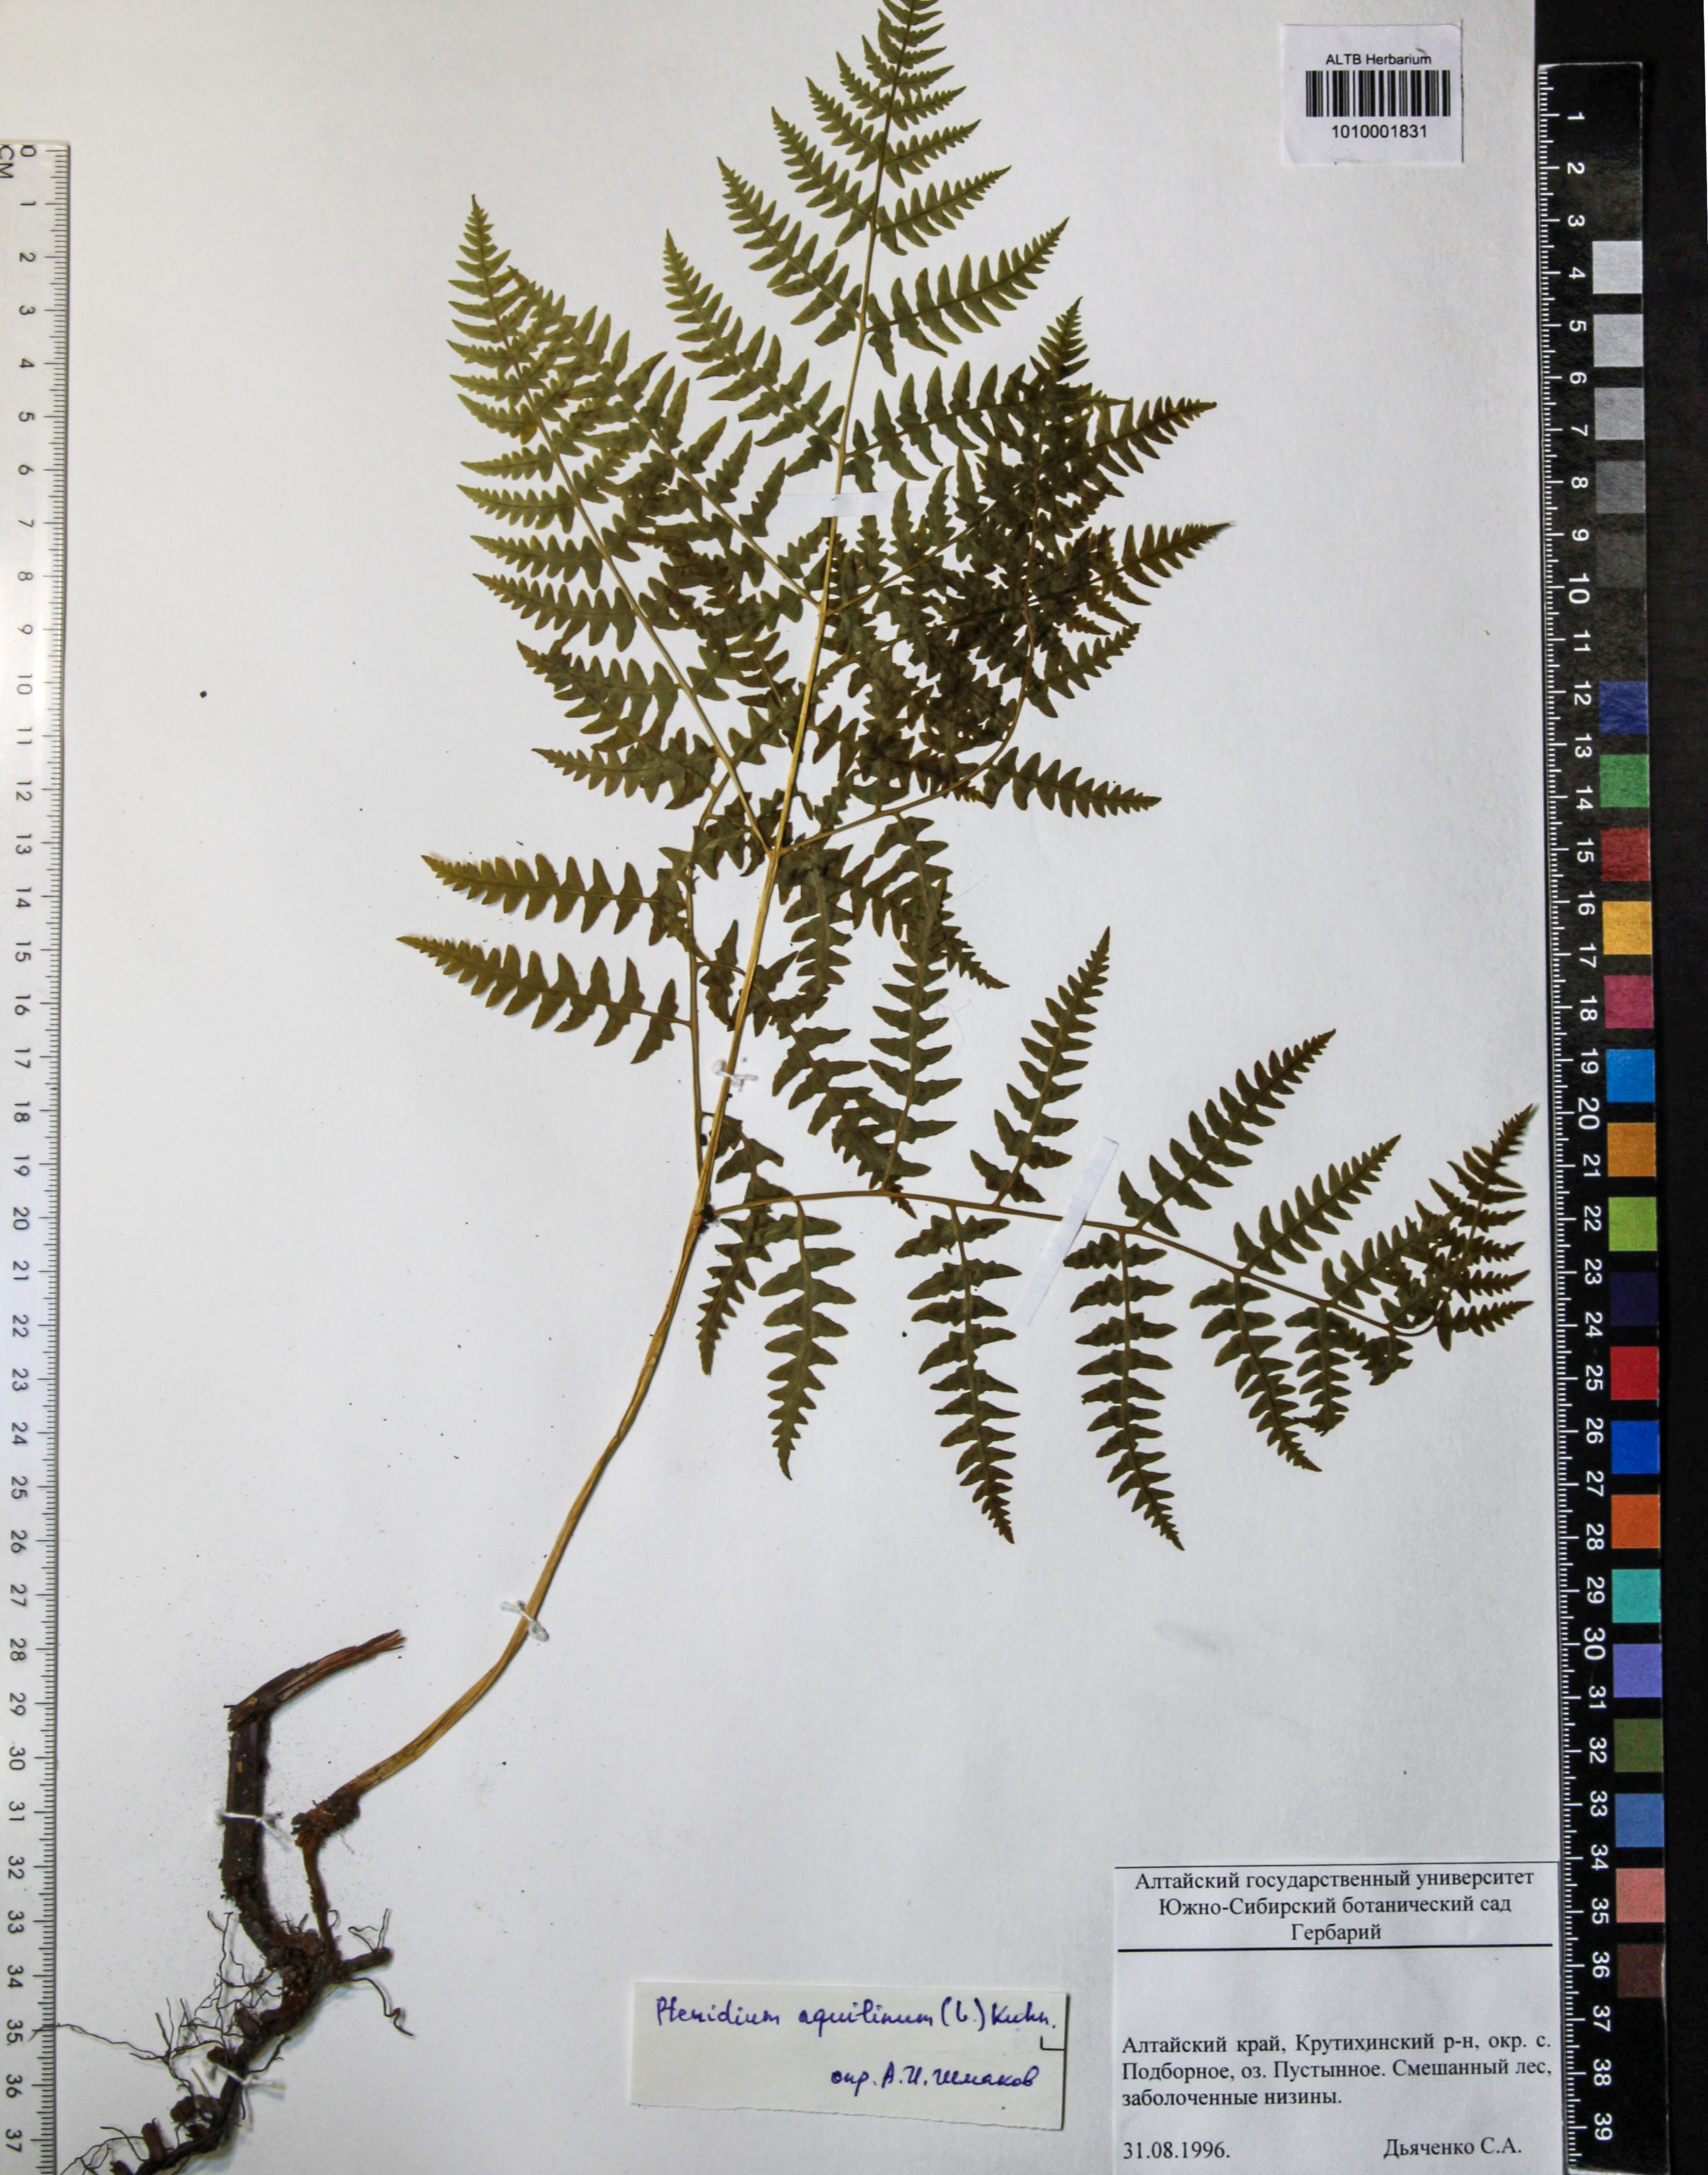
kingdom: Plantae
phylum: Tracheophyta
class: Polypodiopsida
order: Polypodiales
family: Dennstaedtiaceae
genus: Pteridium
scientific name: Pteridium aquilinum
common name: Bracken
